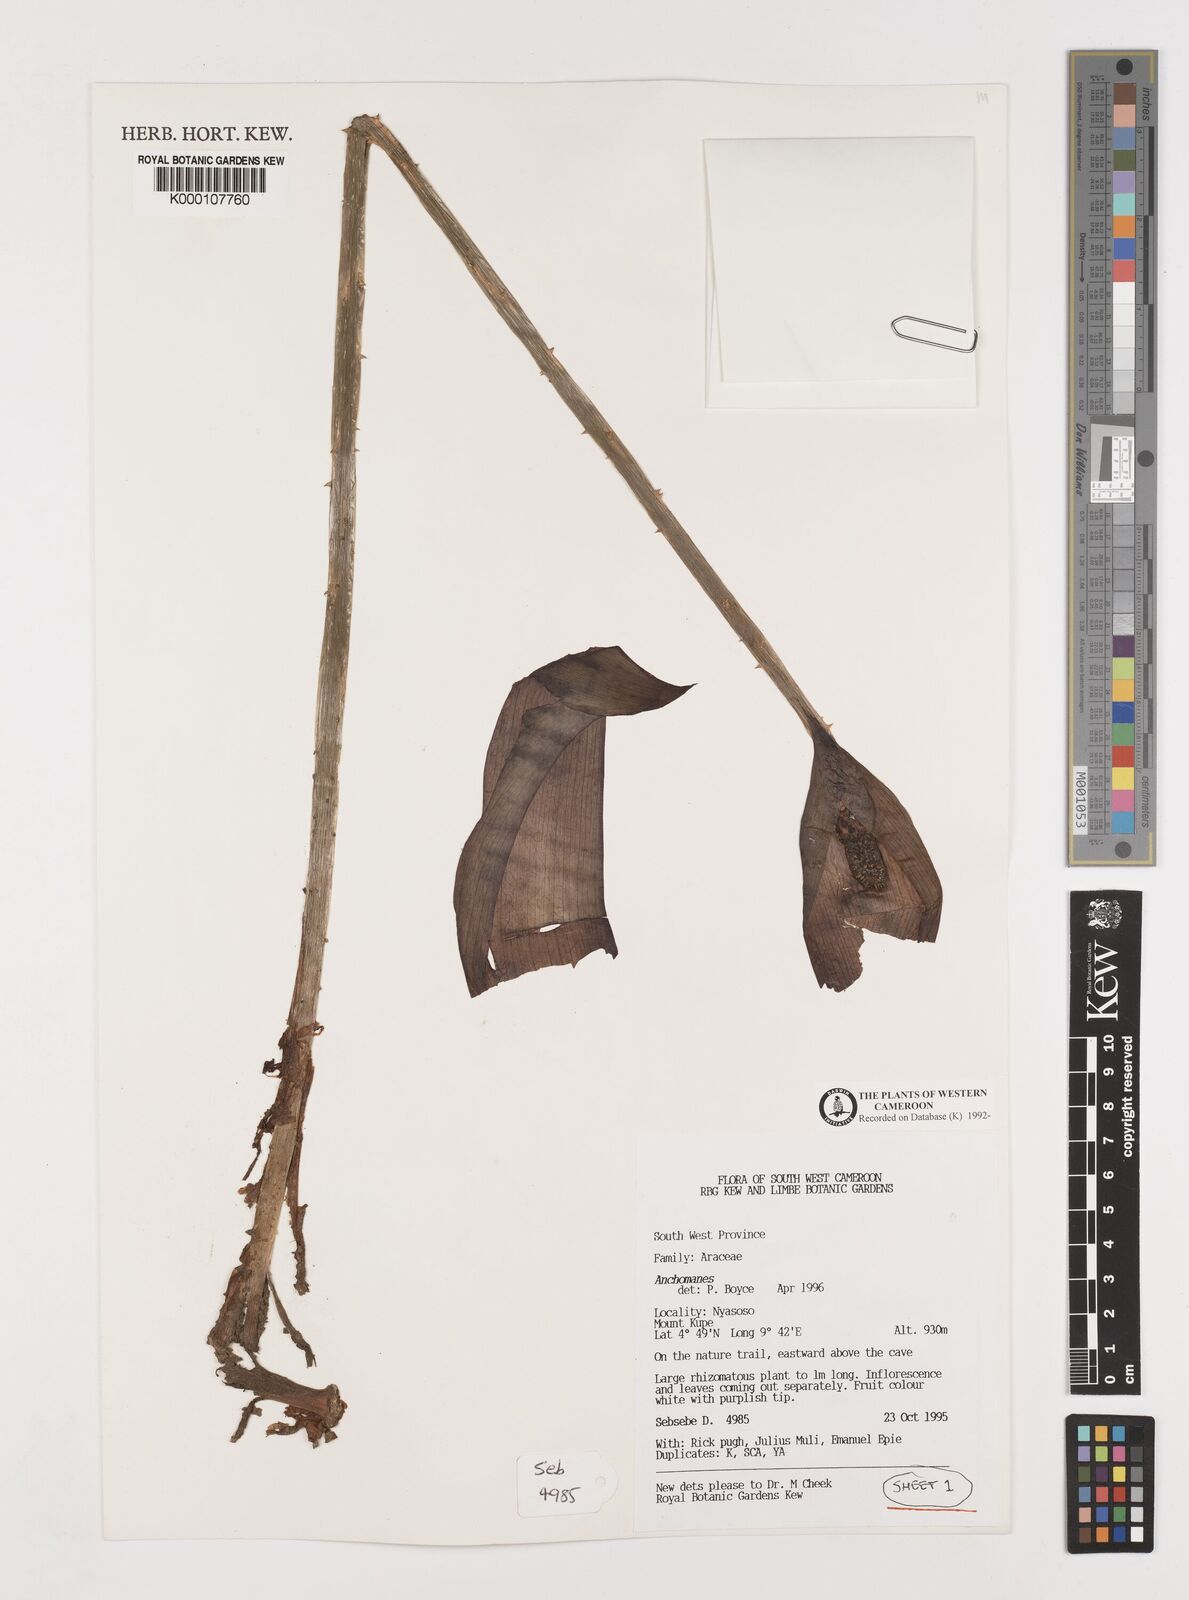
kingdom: Plantae
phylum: Tracheophyta
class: Liliopsida
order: Alismatales
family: Araceae
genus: Anchomanes
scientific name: Anchomanes
